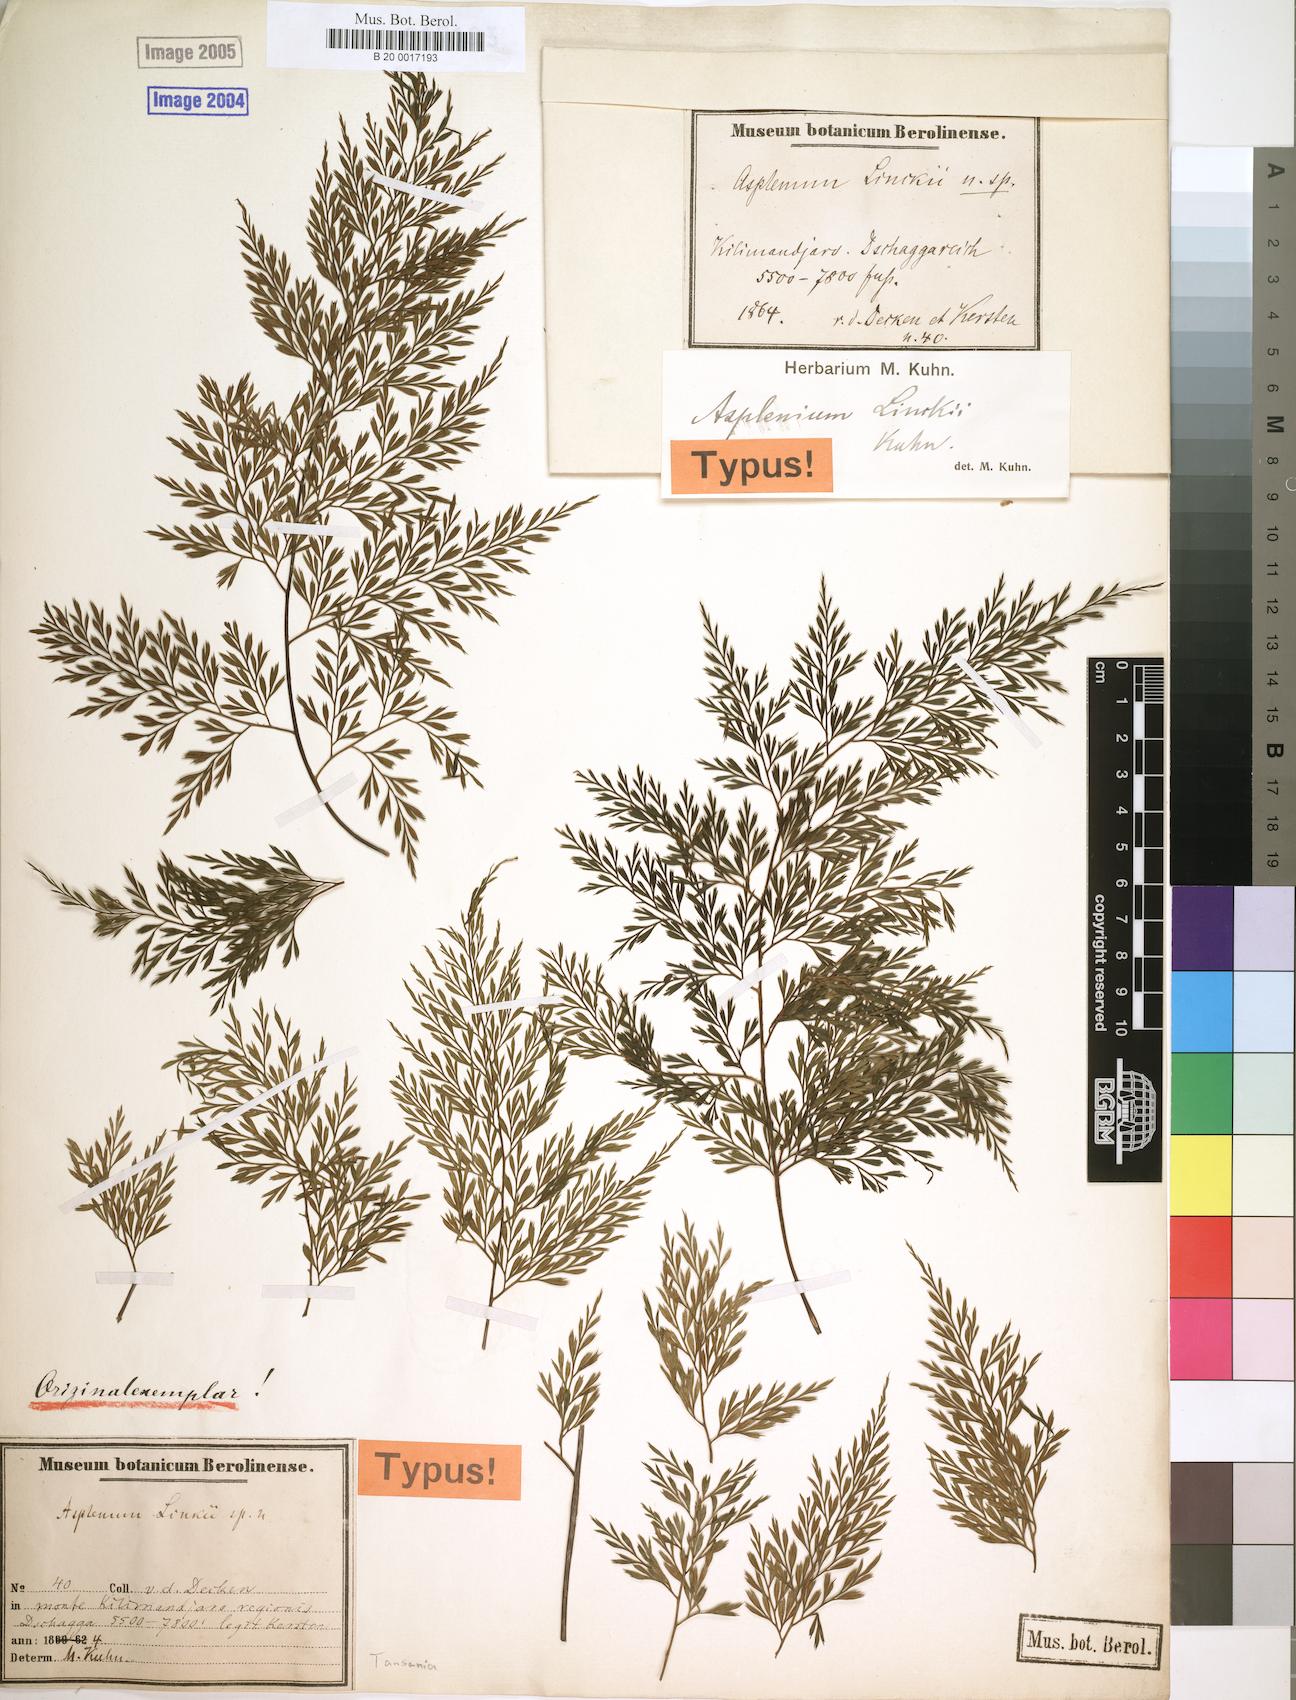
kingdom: Plantae
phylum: Tracheophyta
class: Polypodiopsida
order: Polypodiales
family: Aspleniaceae
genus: Asplenium
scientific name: Asplenium linckii
